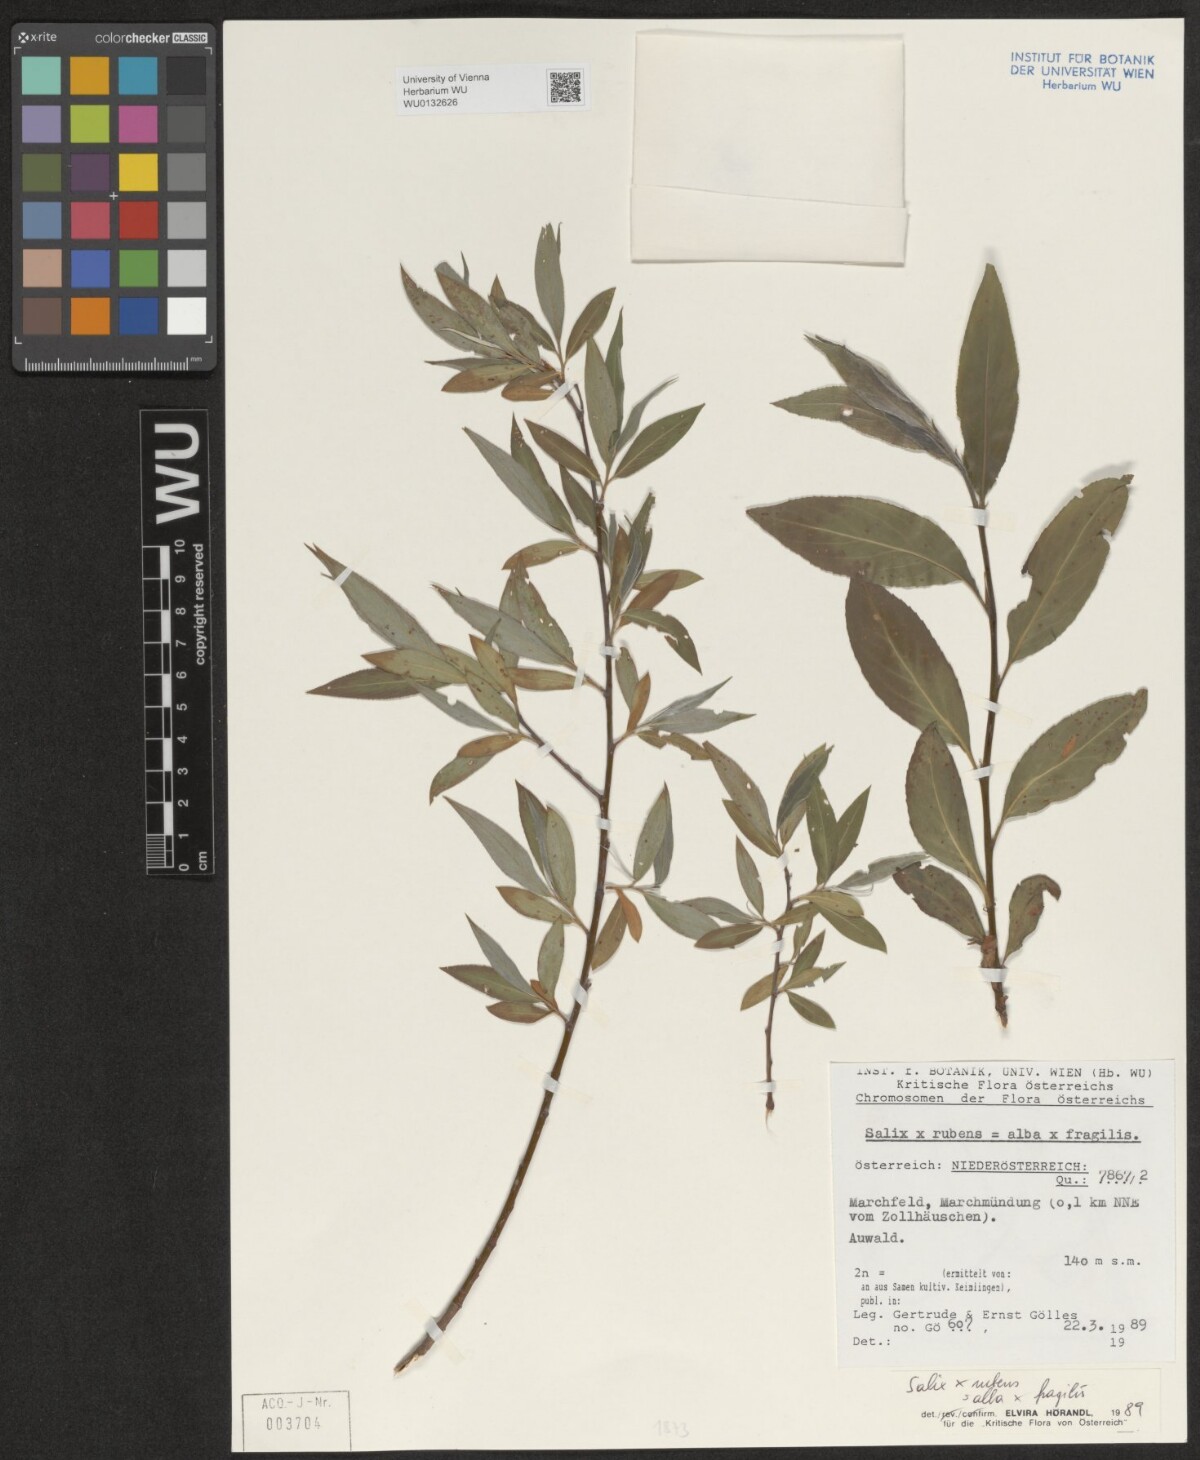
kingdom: Plantae
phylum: Tracheophyta
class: Magnoliopsida
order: Malpighiales
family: Salicaceae
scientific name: Salicaceae
